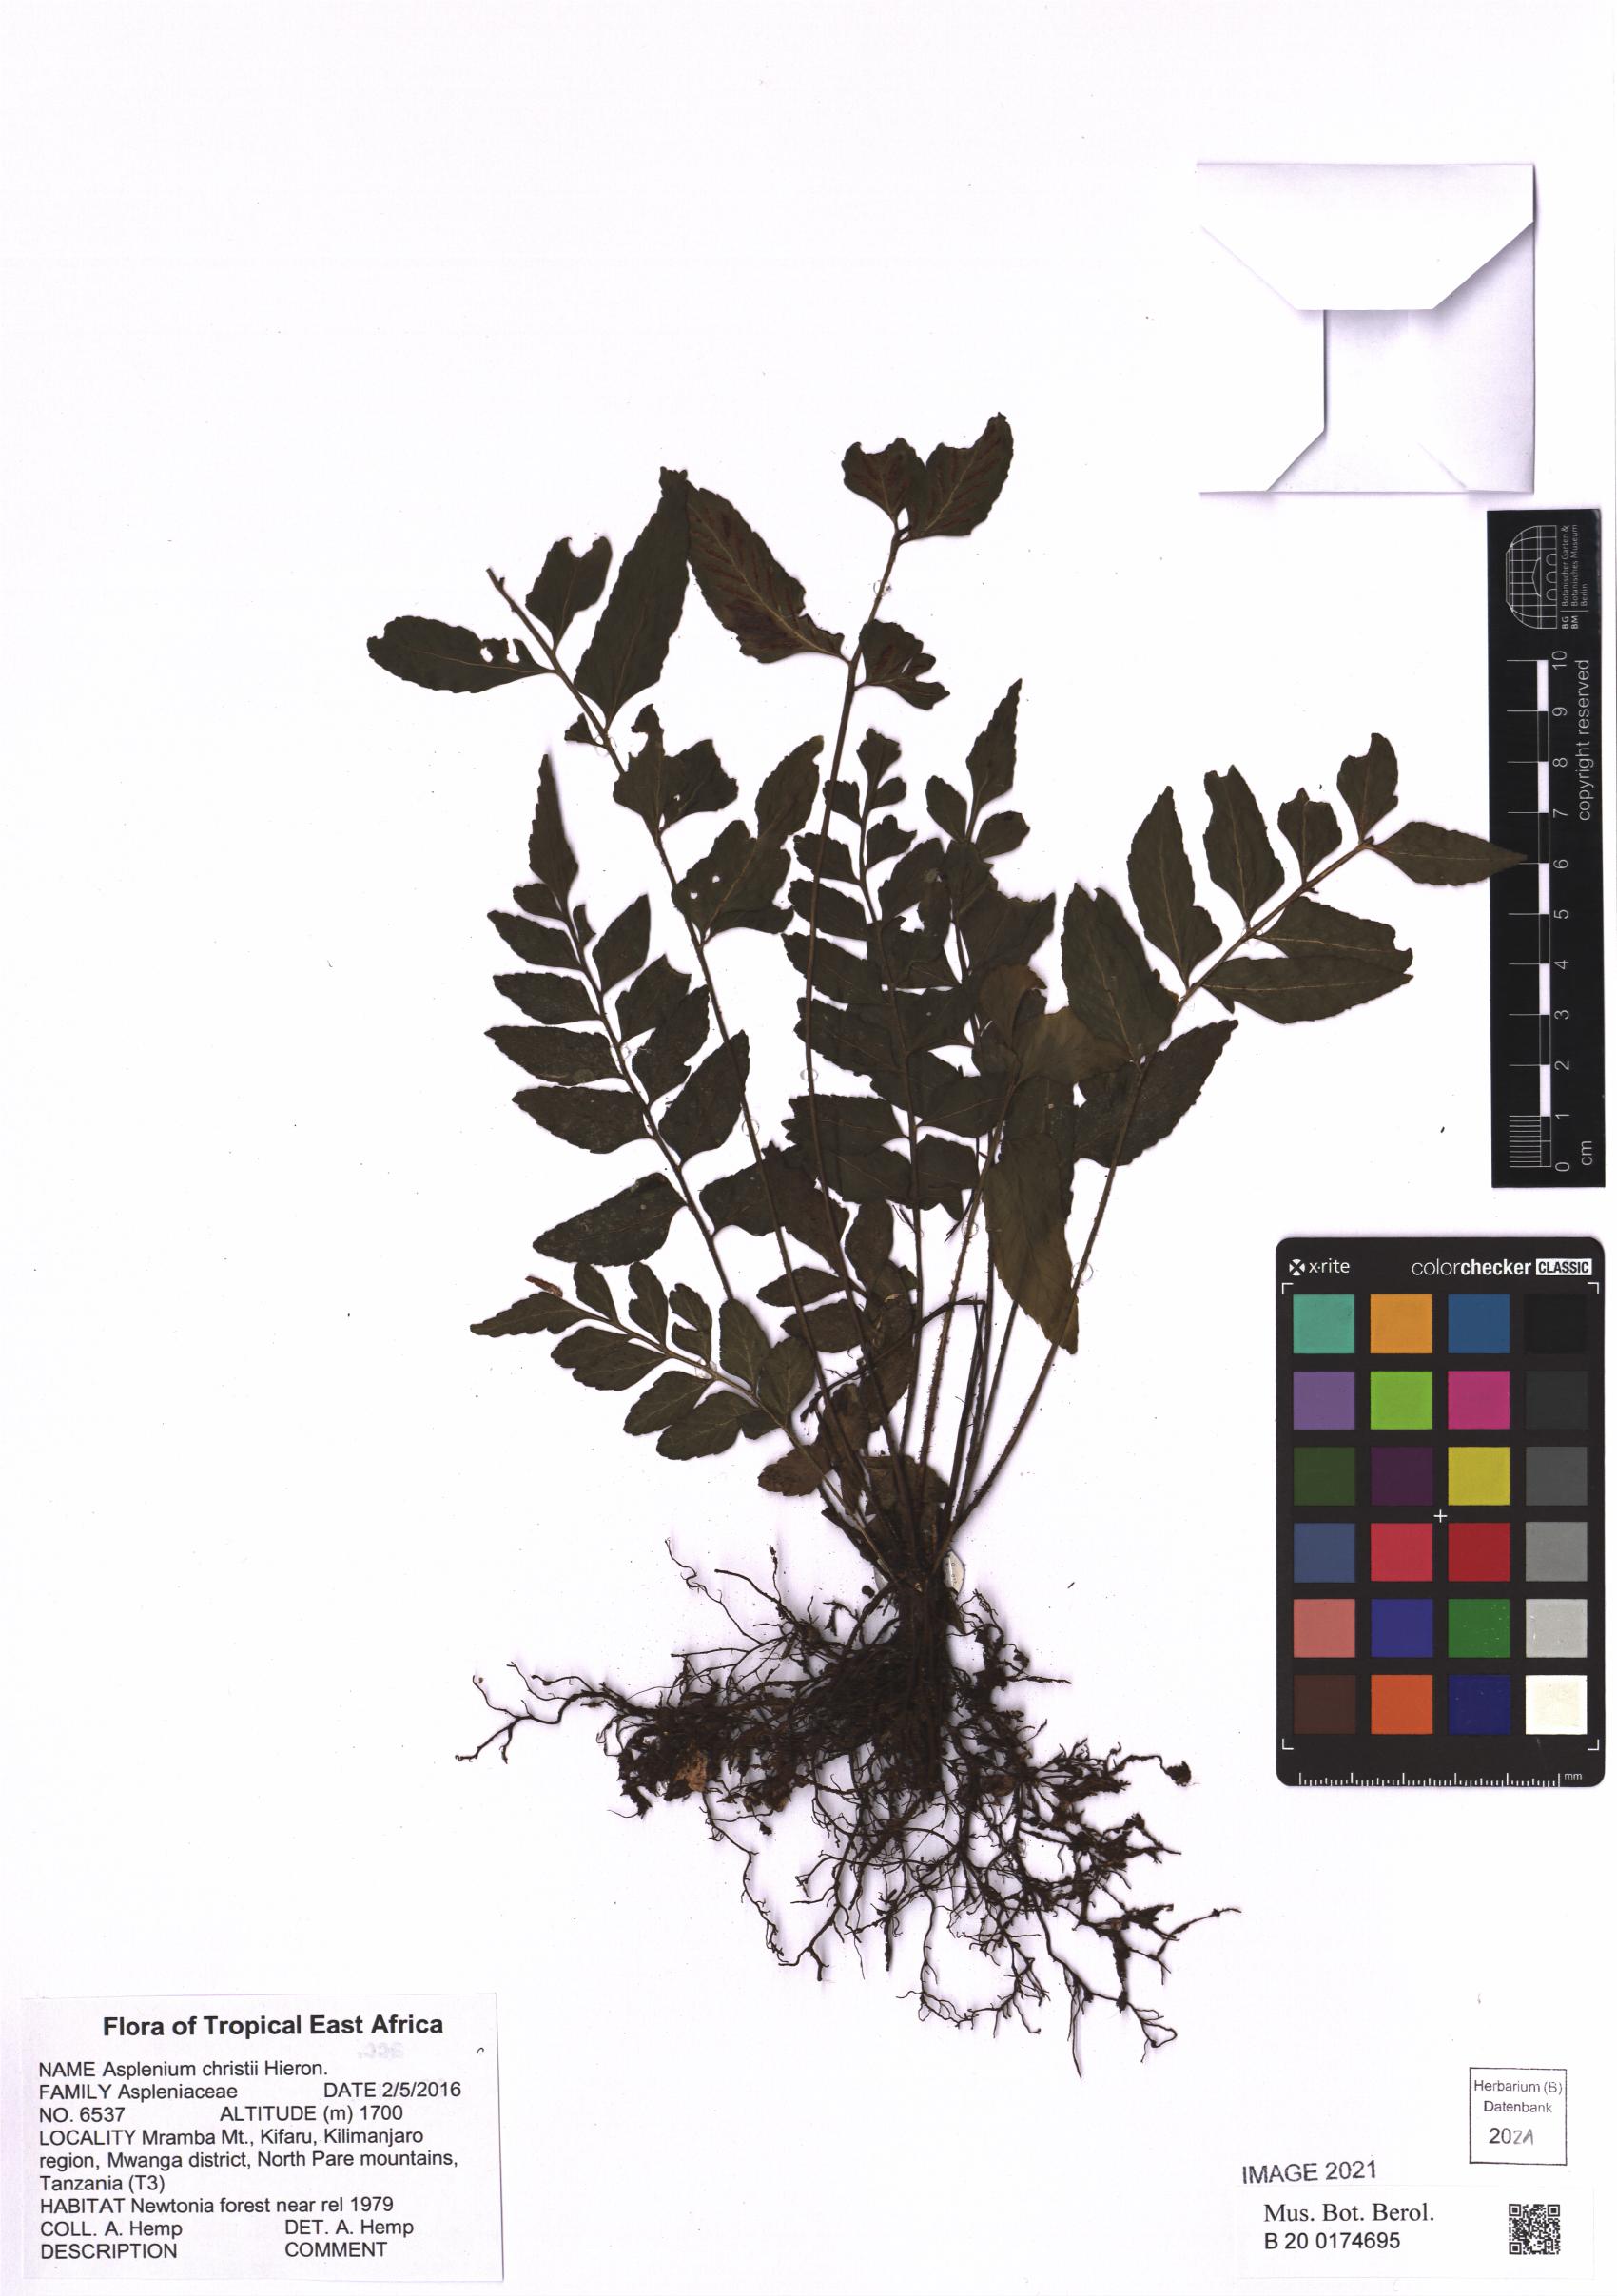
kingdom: Plantae
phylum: Tracheophyta
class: Polypodiopsida
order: Polypodiales
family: Aspleniaceae
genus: Asplenium
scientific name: Asplenium christii
